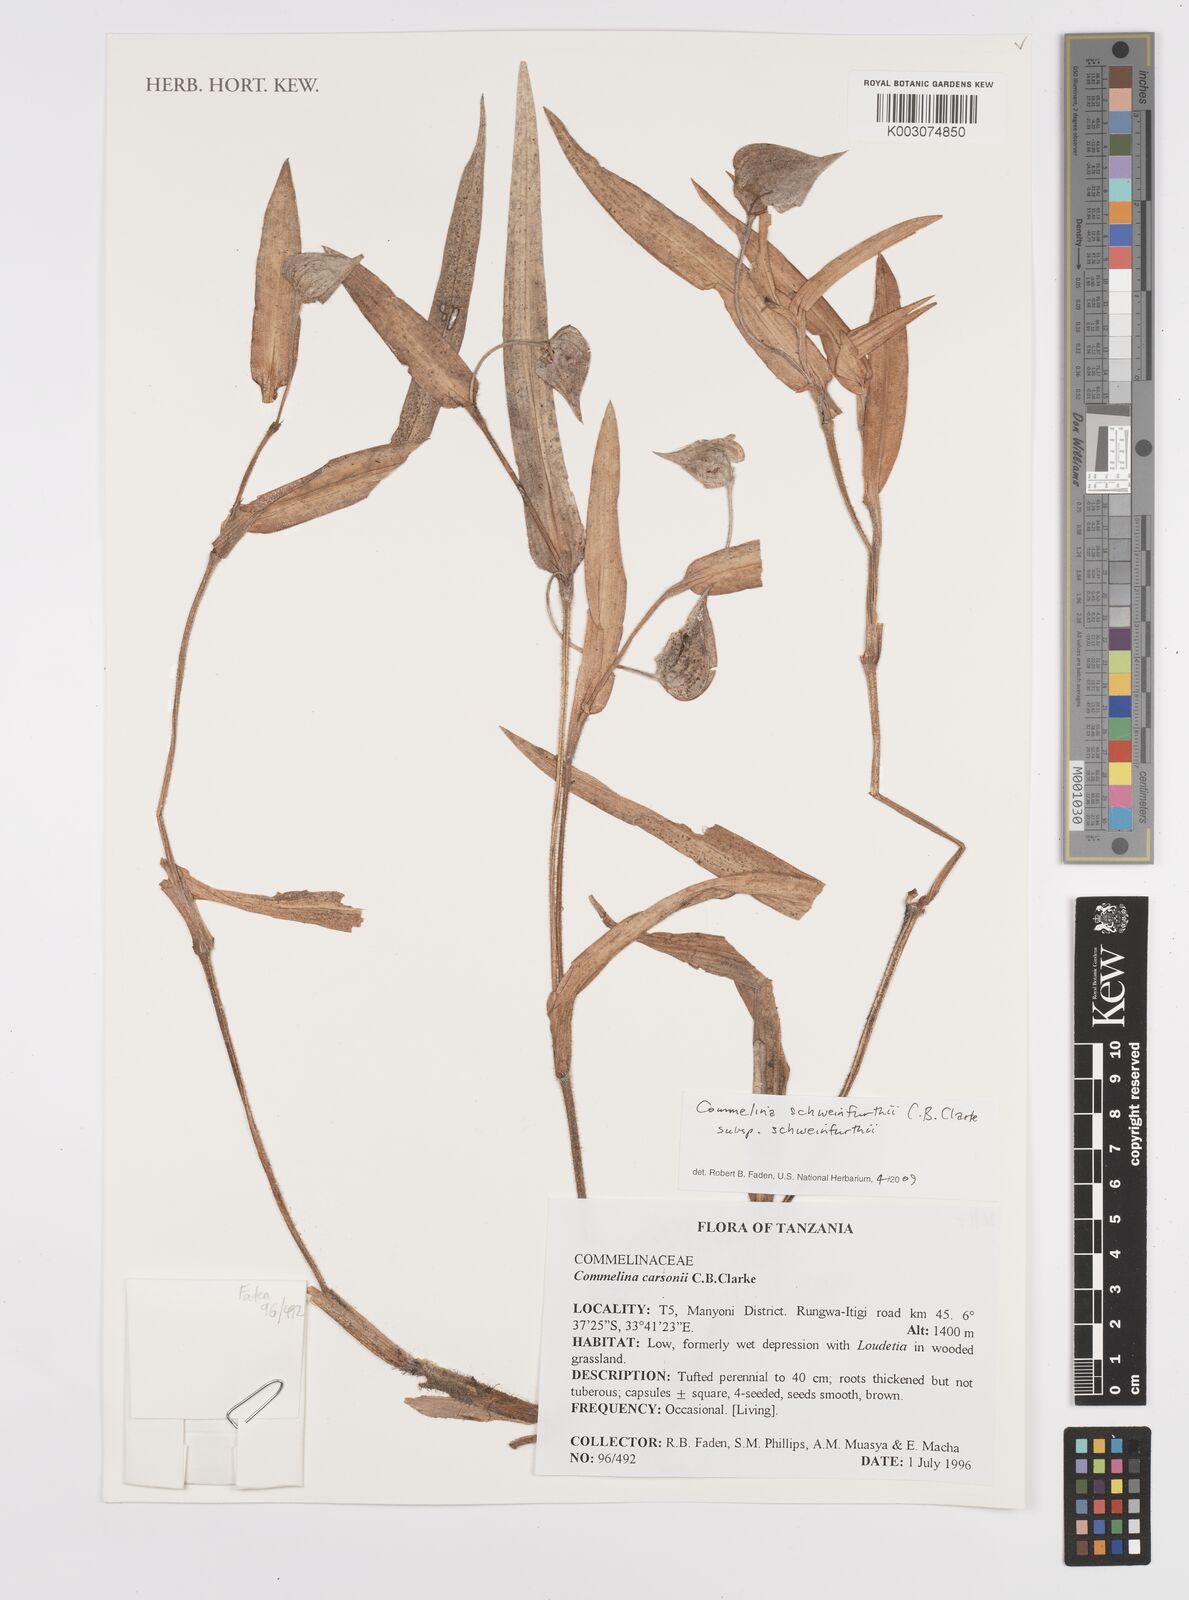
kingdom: Plantae
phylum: Tracheophyta
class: Liliopsida
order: Commelinales
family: Commelinaceae
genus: Commelina
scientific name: Commelina schweinfurthii
